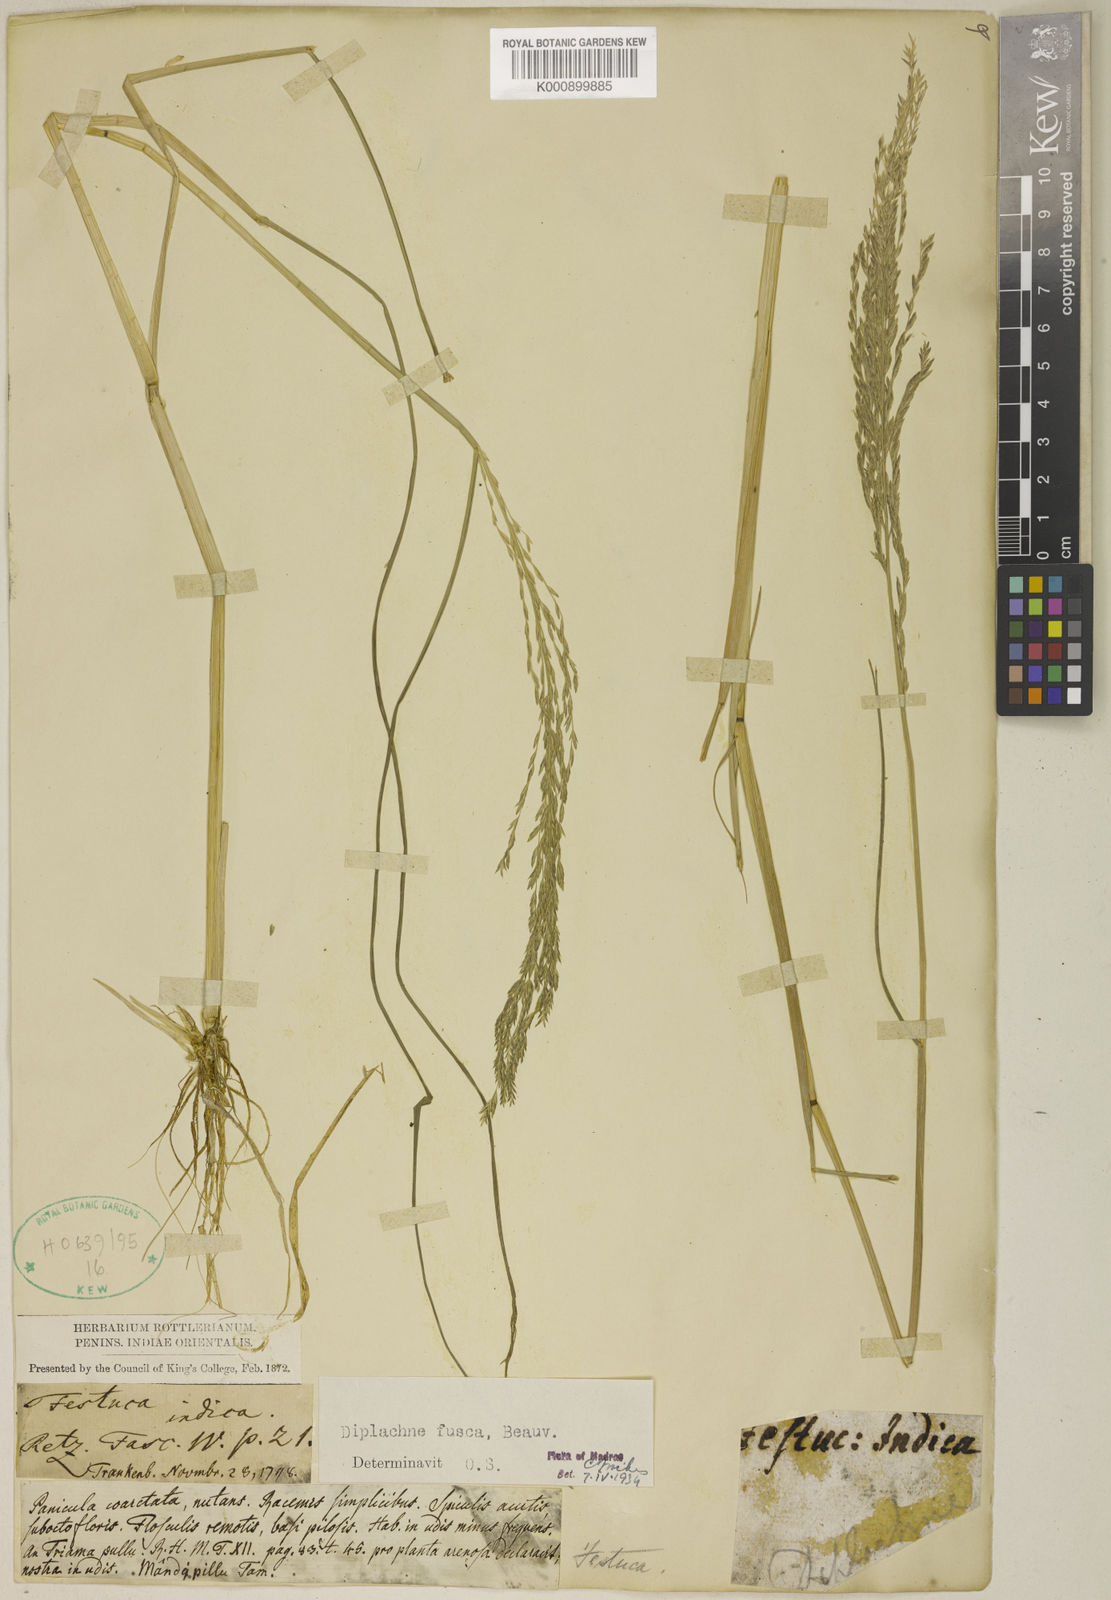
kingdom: Plantae
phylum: Tracheophyta
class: Liliopsida
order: Poales
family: Poaceae
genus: Diplachne
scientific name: Diplachne fusca
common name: Brown beetle grass
